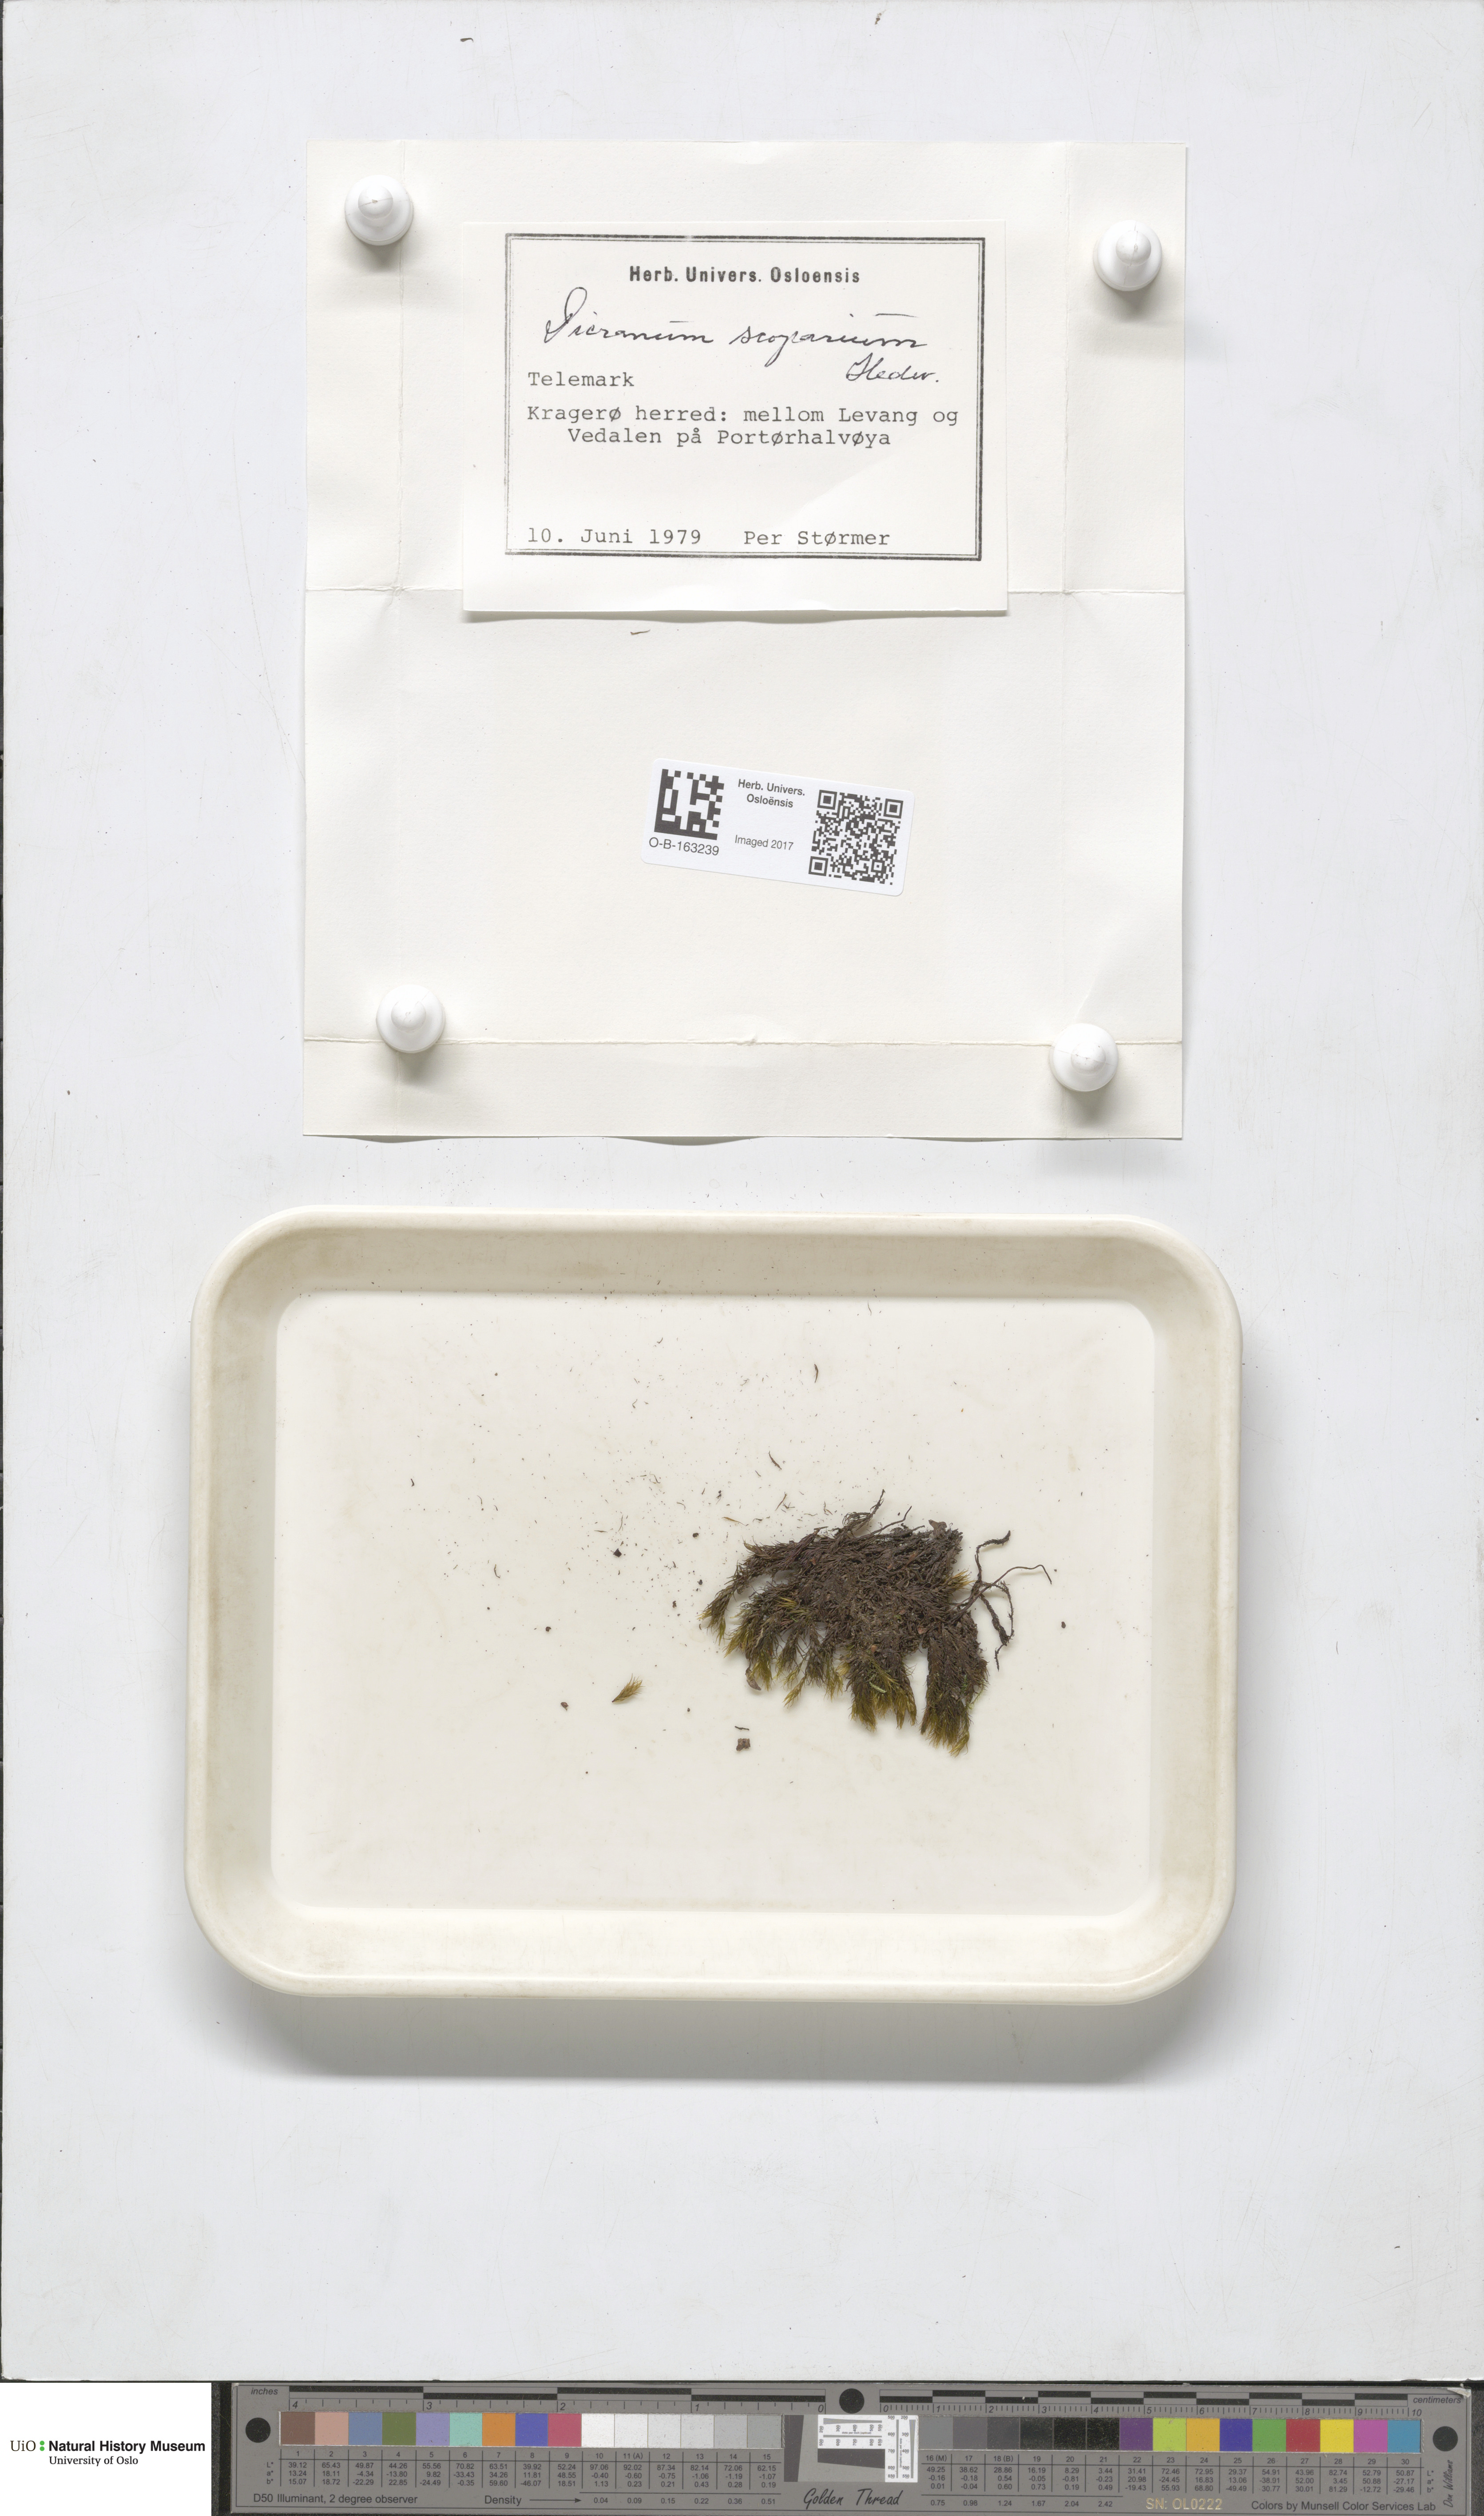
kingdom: Plantae
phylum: Bryophyta
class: Bryopsida
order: Dicranales
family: Dicranaceae
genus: Dicranum
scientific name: Dicranum scoparium
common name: Broom fork-moss
